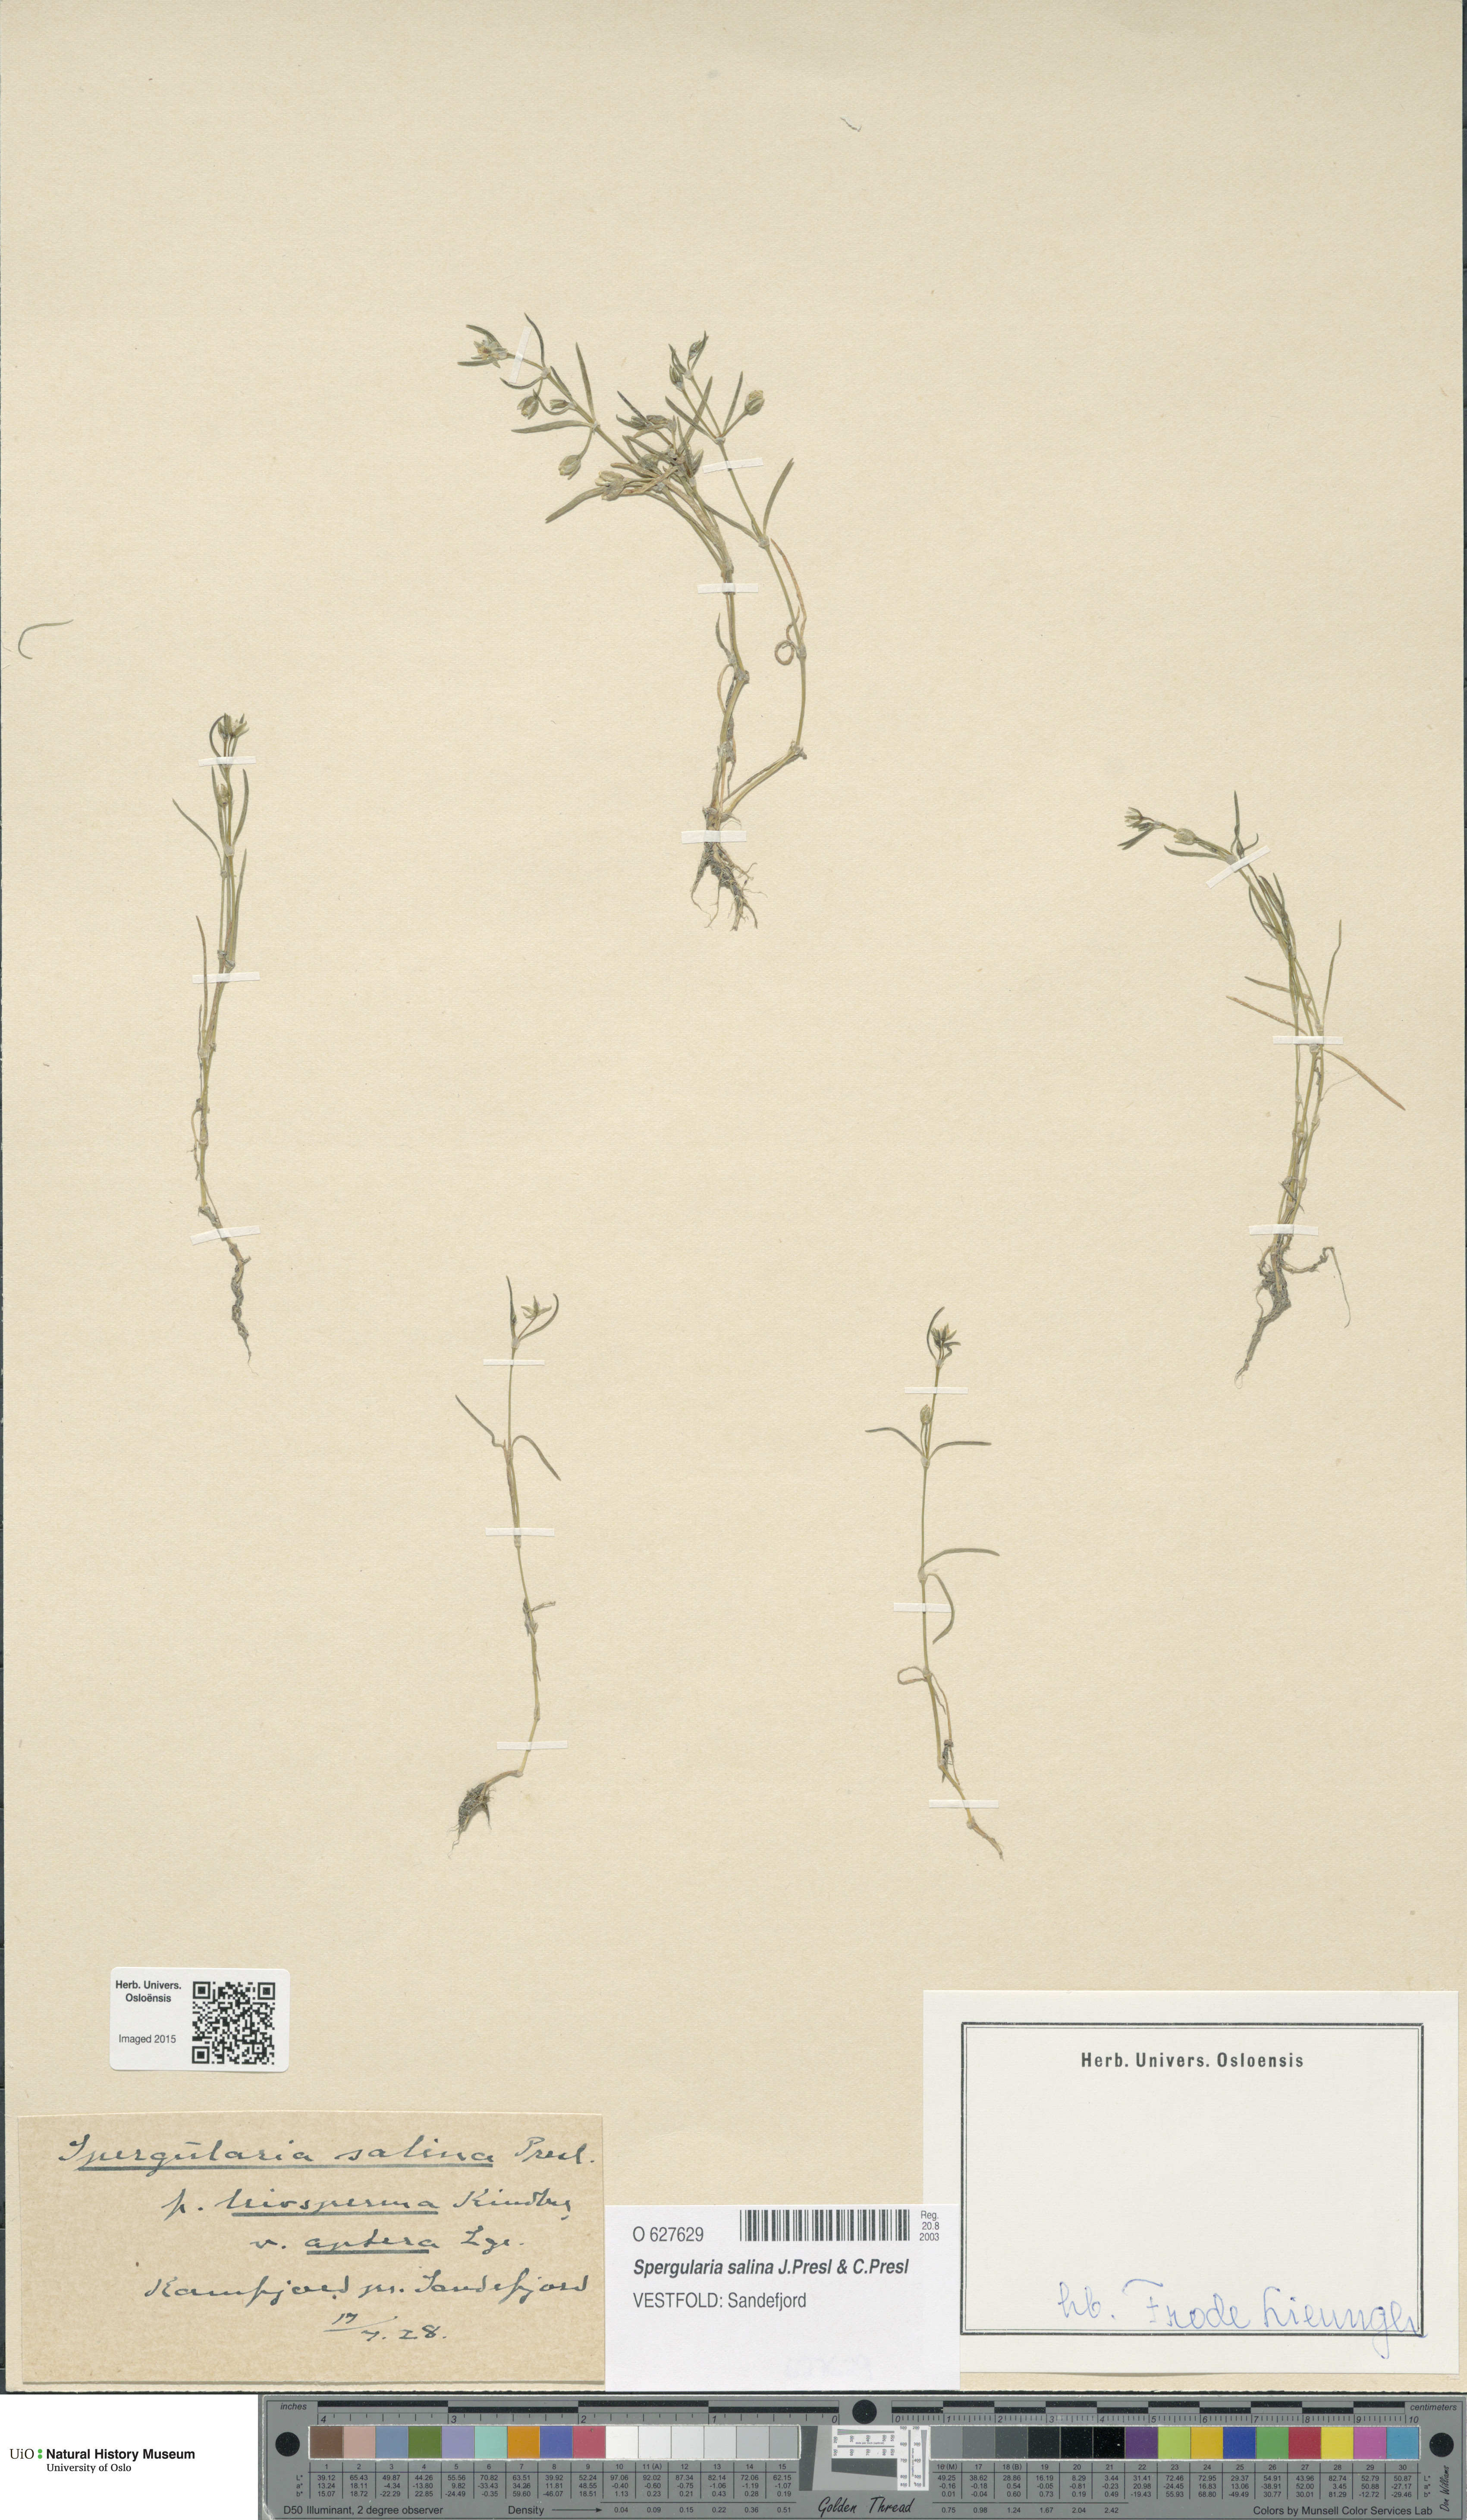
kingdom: Plantae
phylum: Tracheophyta
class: Magnoliopsida
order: Caryophyllales
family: Caryophyllaceae
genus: Spergularia
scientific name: Spergularia marina
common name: Lesser sea-spurrey
